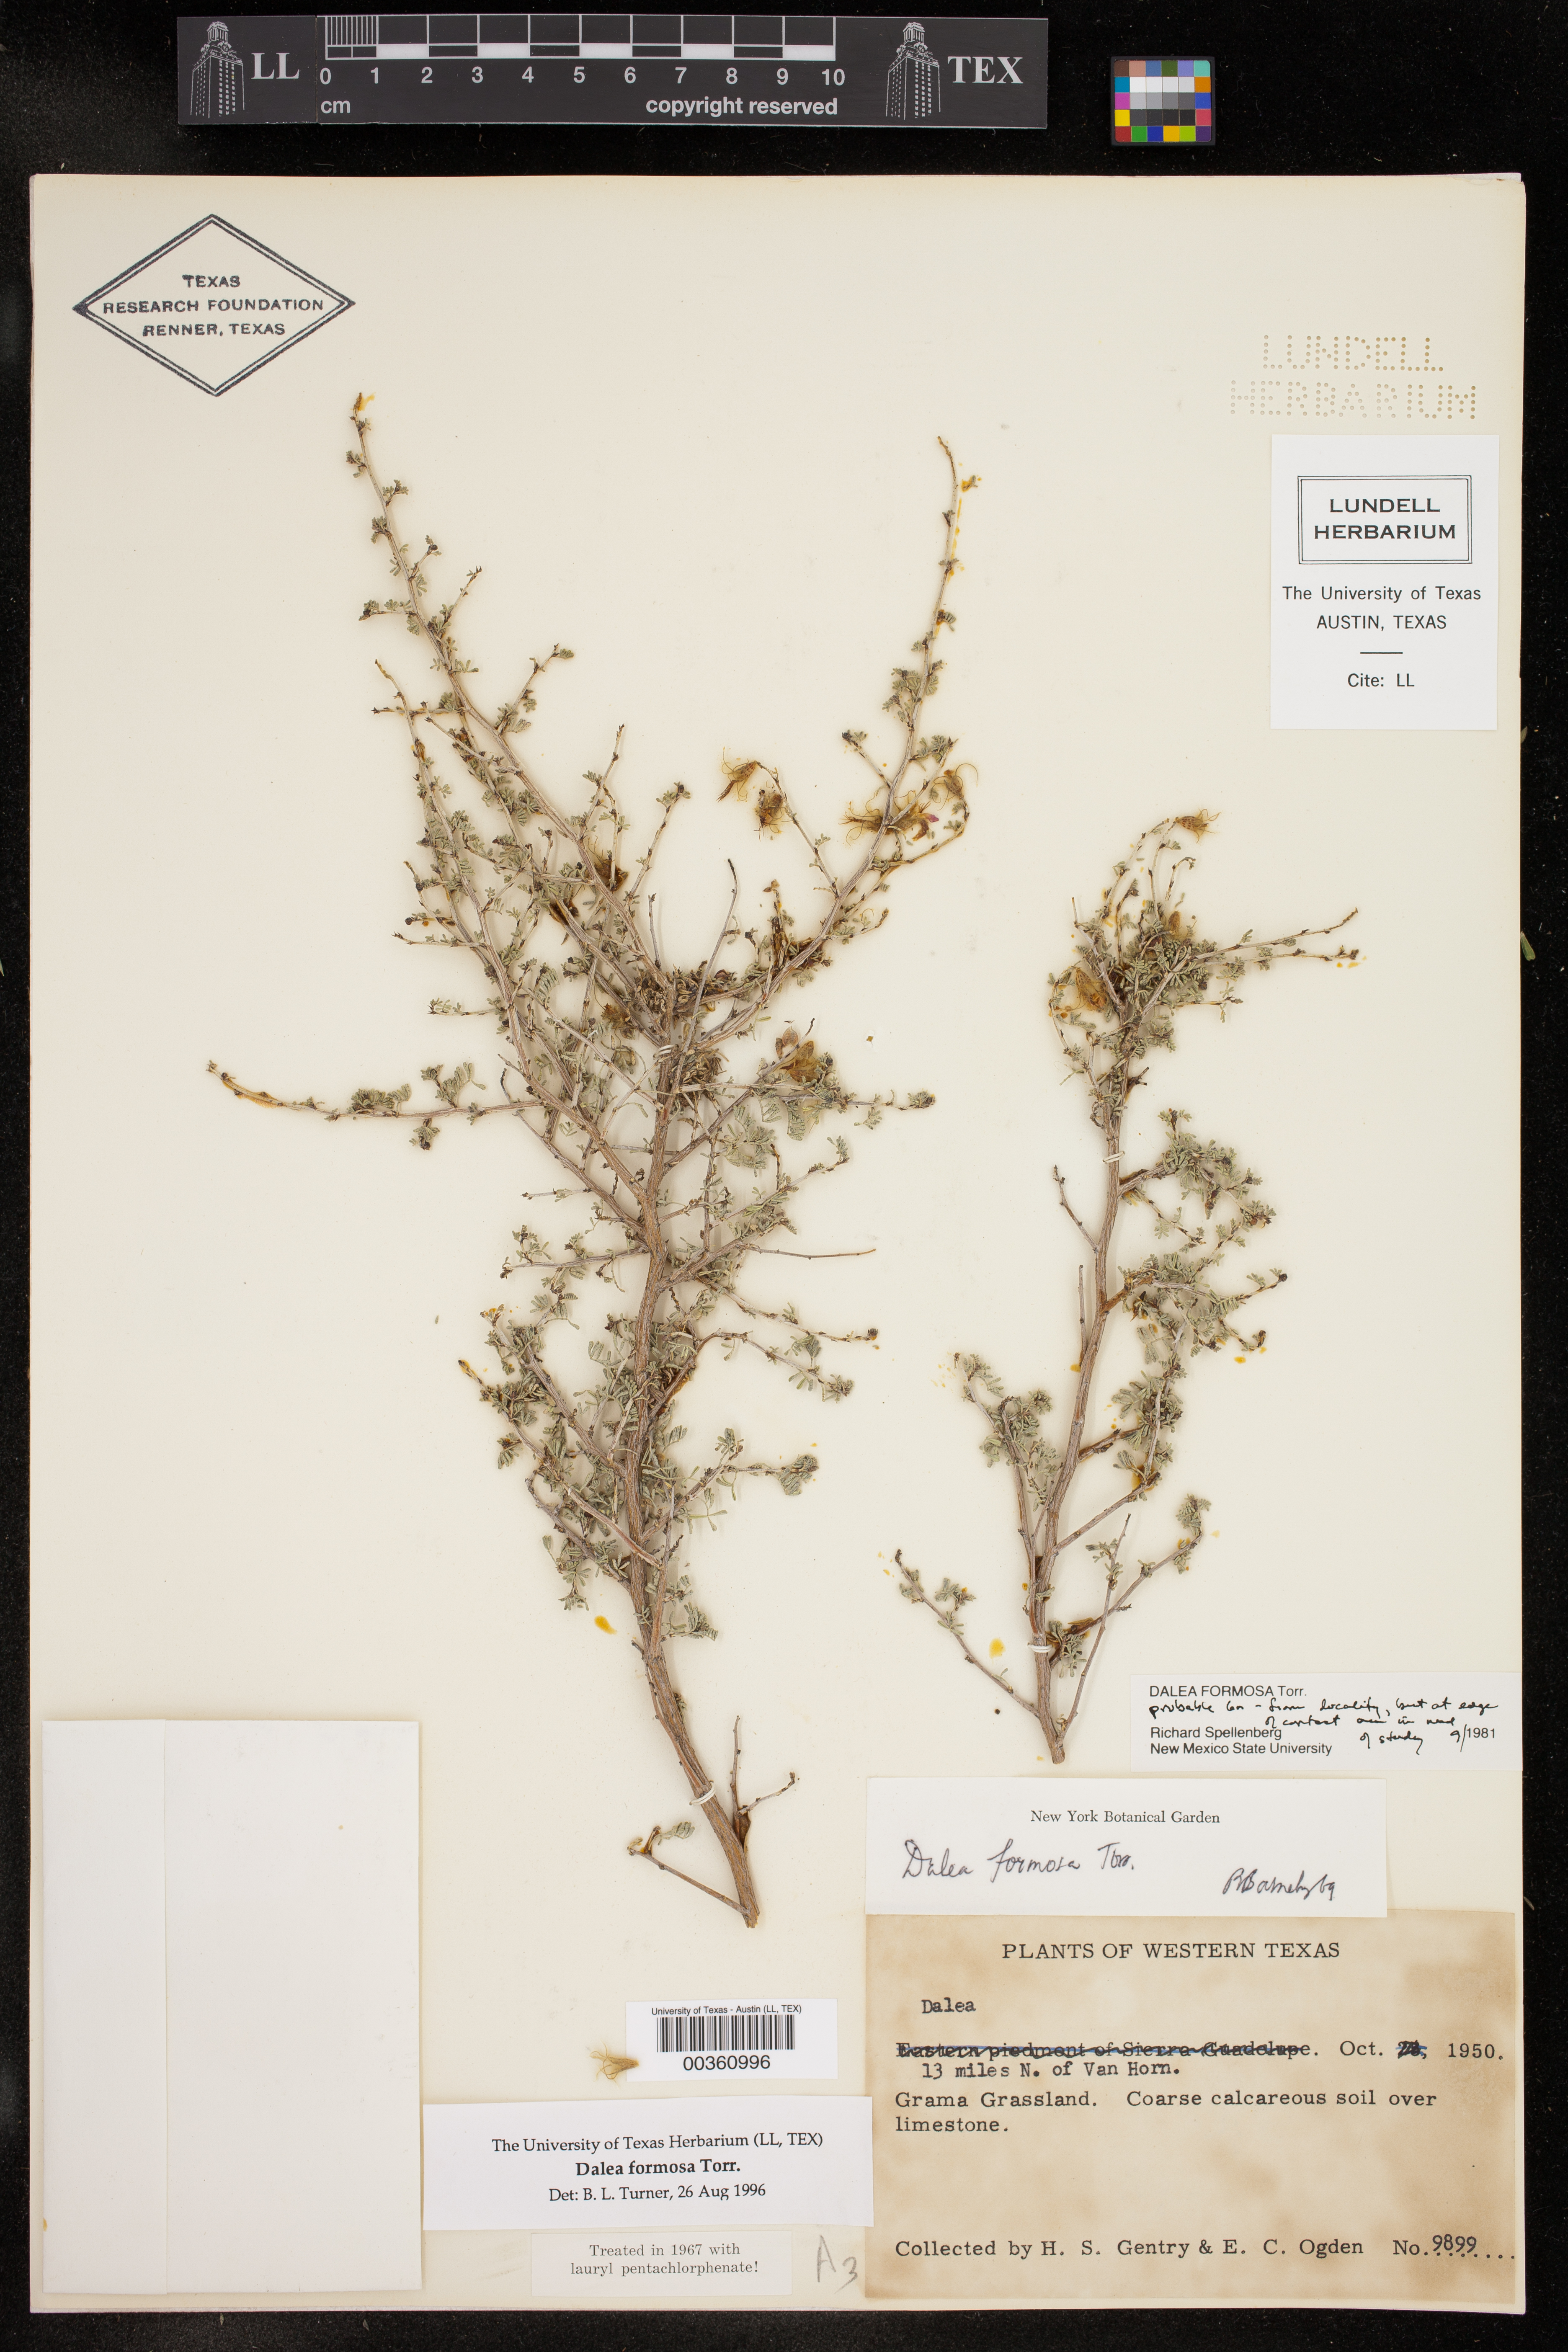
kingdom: Plantae
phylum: Tracheophyta
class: Magnoliopsida
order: Fabales
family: Fabaceae
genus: Dalea
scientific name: Dalea formosa
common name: Feather-plume dalea
